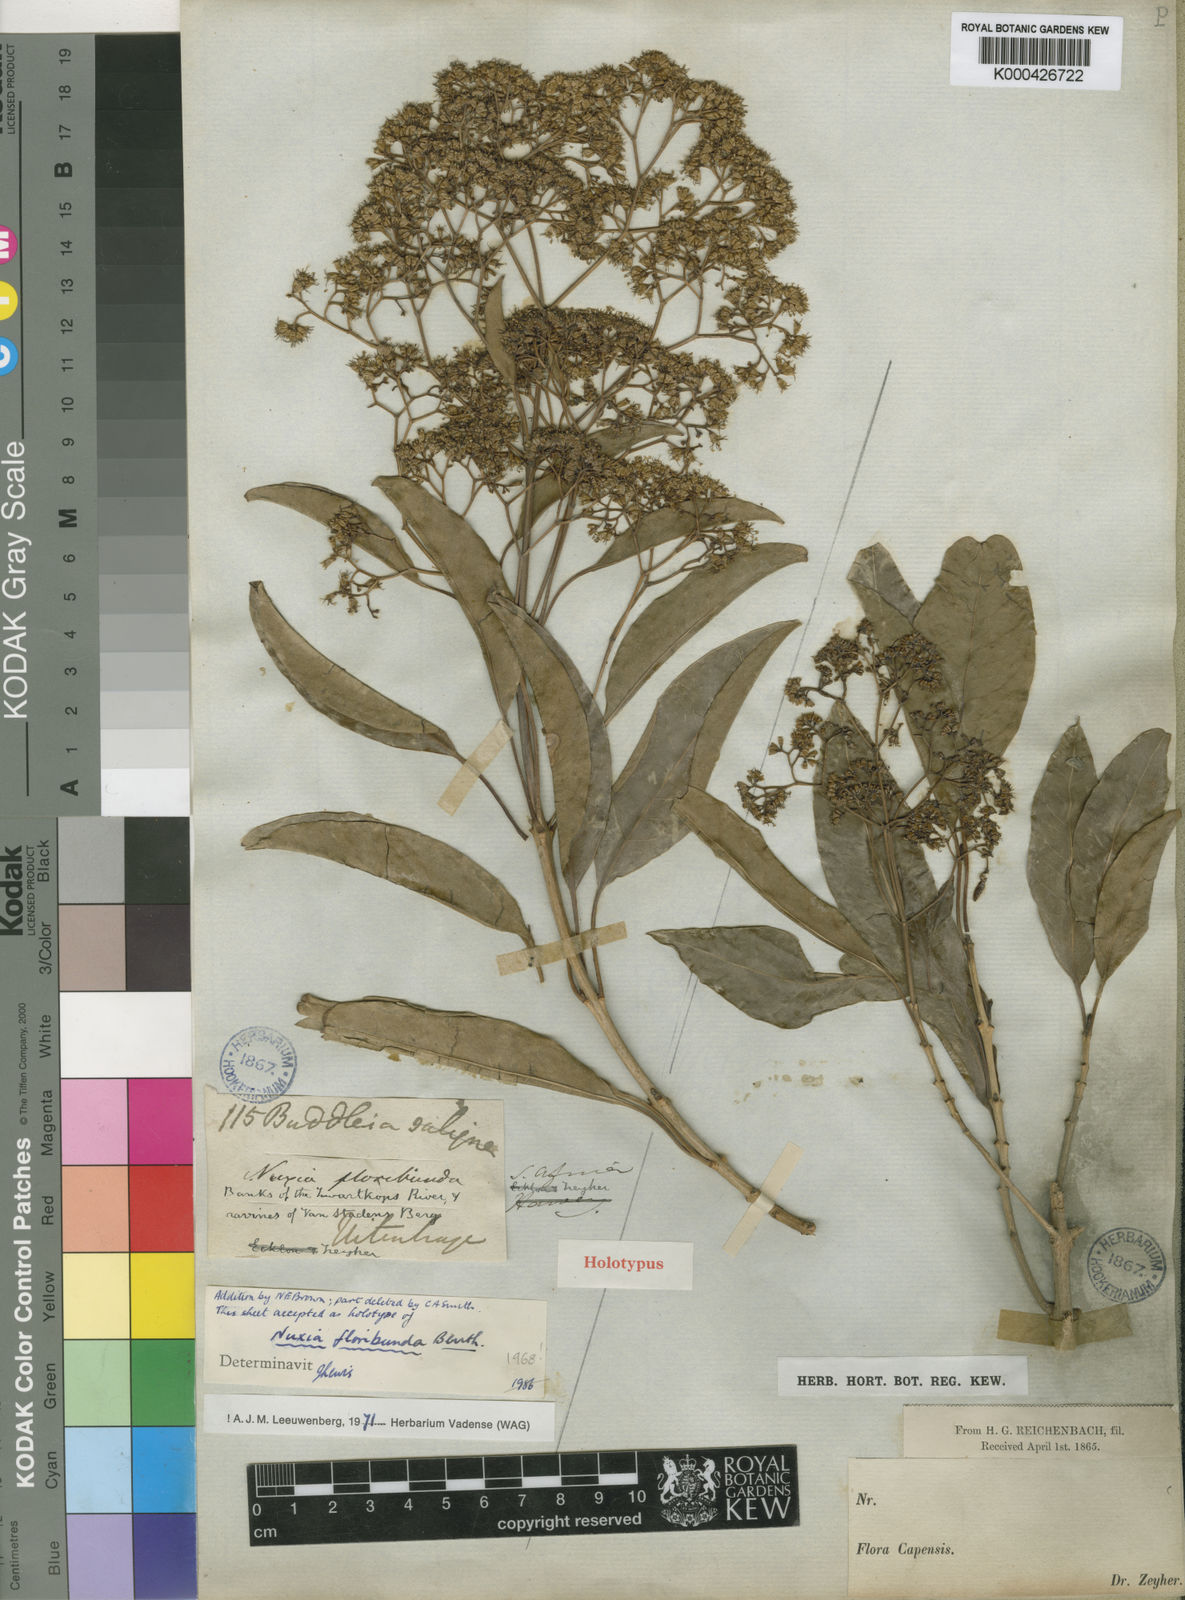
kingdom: Plantae
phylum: Tracheophyta
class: Magnoliopsida
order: Lamiales
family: Stilbaceae
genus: Nuxia
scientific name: Nuxia floribunda
